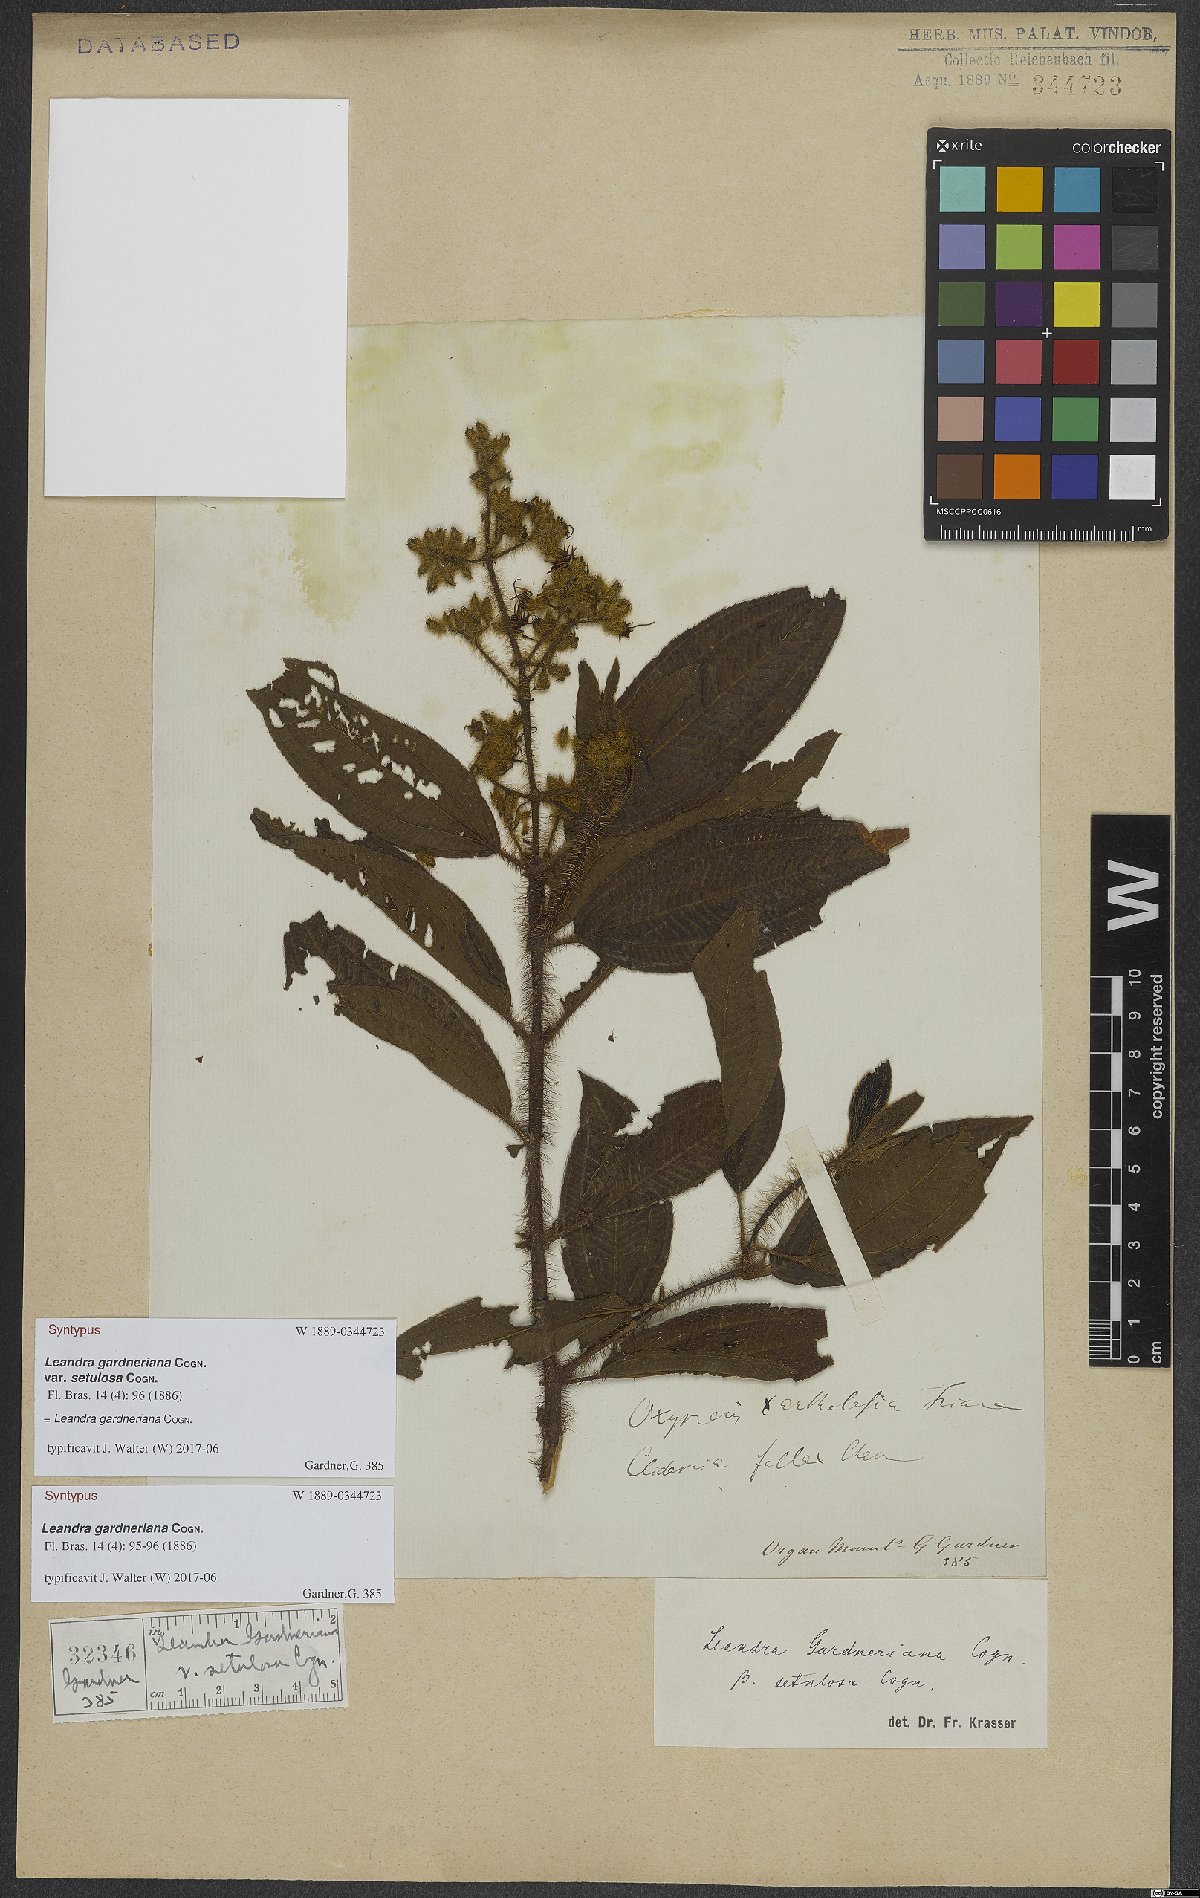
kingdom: Plantae
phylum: Tracheophyta
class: Magnoliopsida
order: Myrtales
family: Melastomataceae
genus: Miconia
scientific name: Miconia xantholasia
